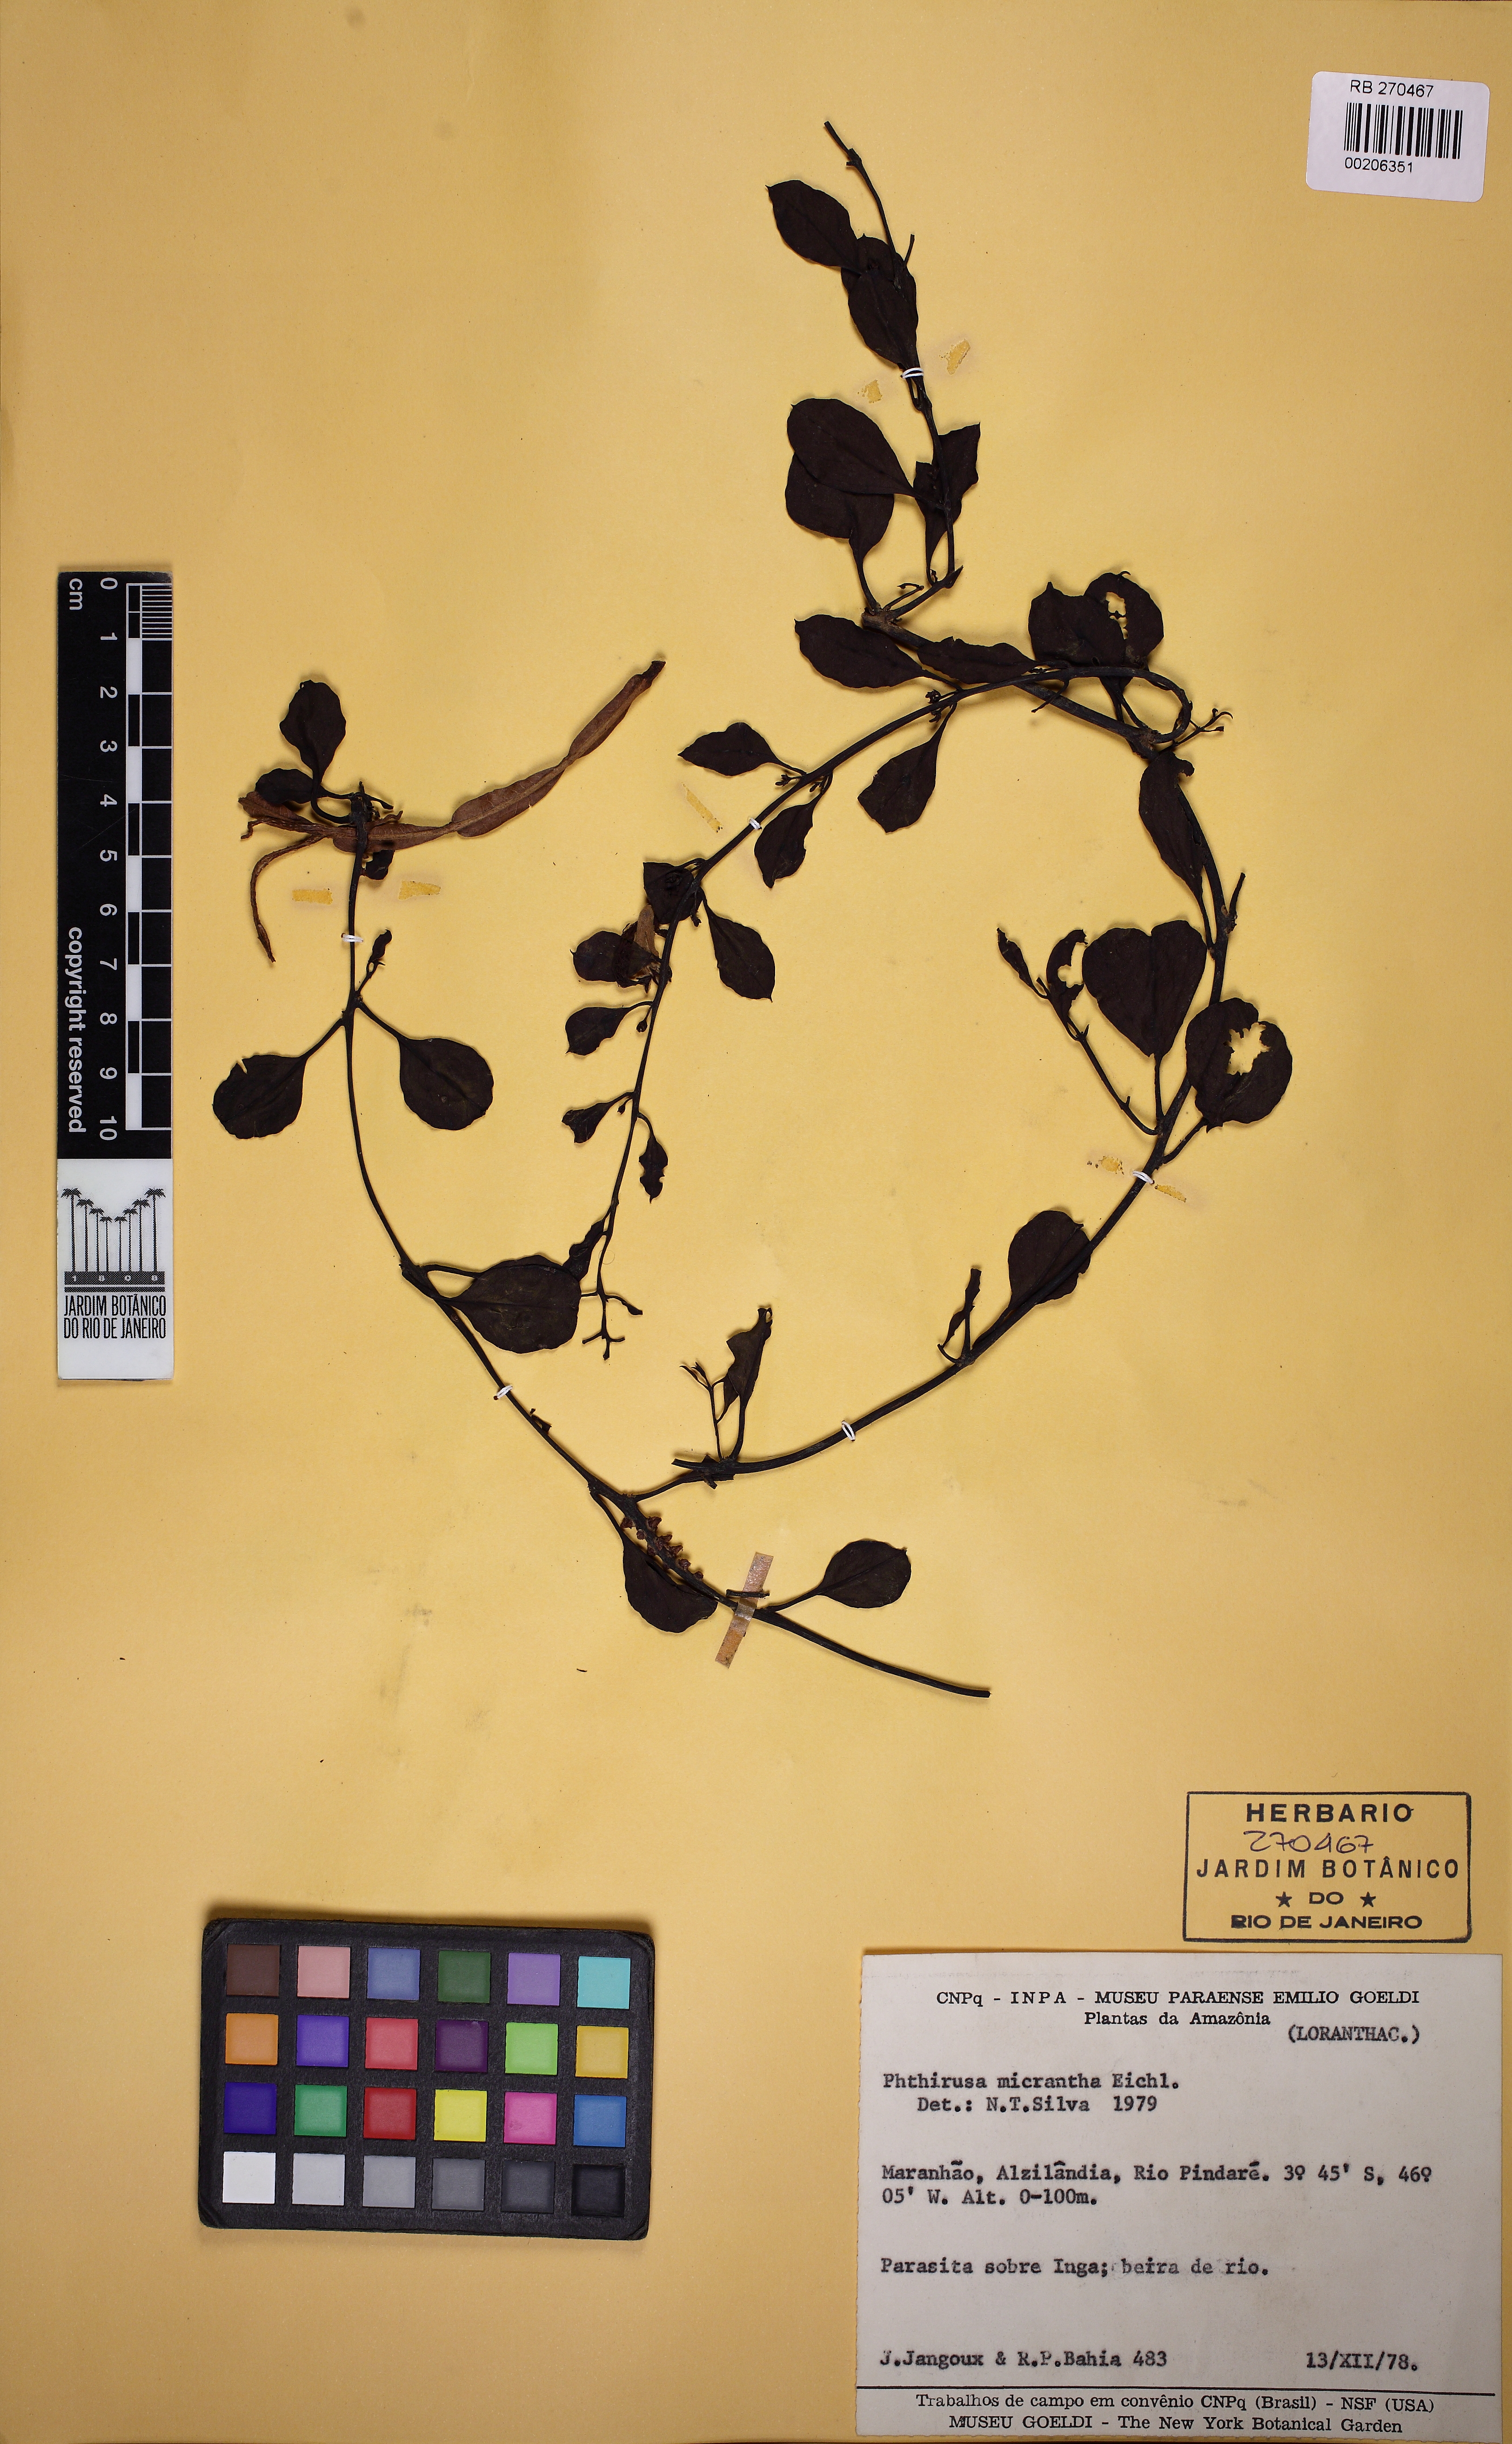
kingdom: Plantae
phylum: Tracheophyta
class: Magnoliopsida
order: Santalales
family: Loranthaceae
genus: Cladocolea
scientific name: Cladocolea micrantha
